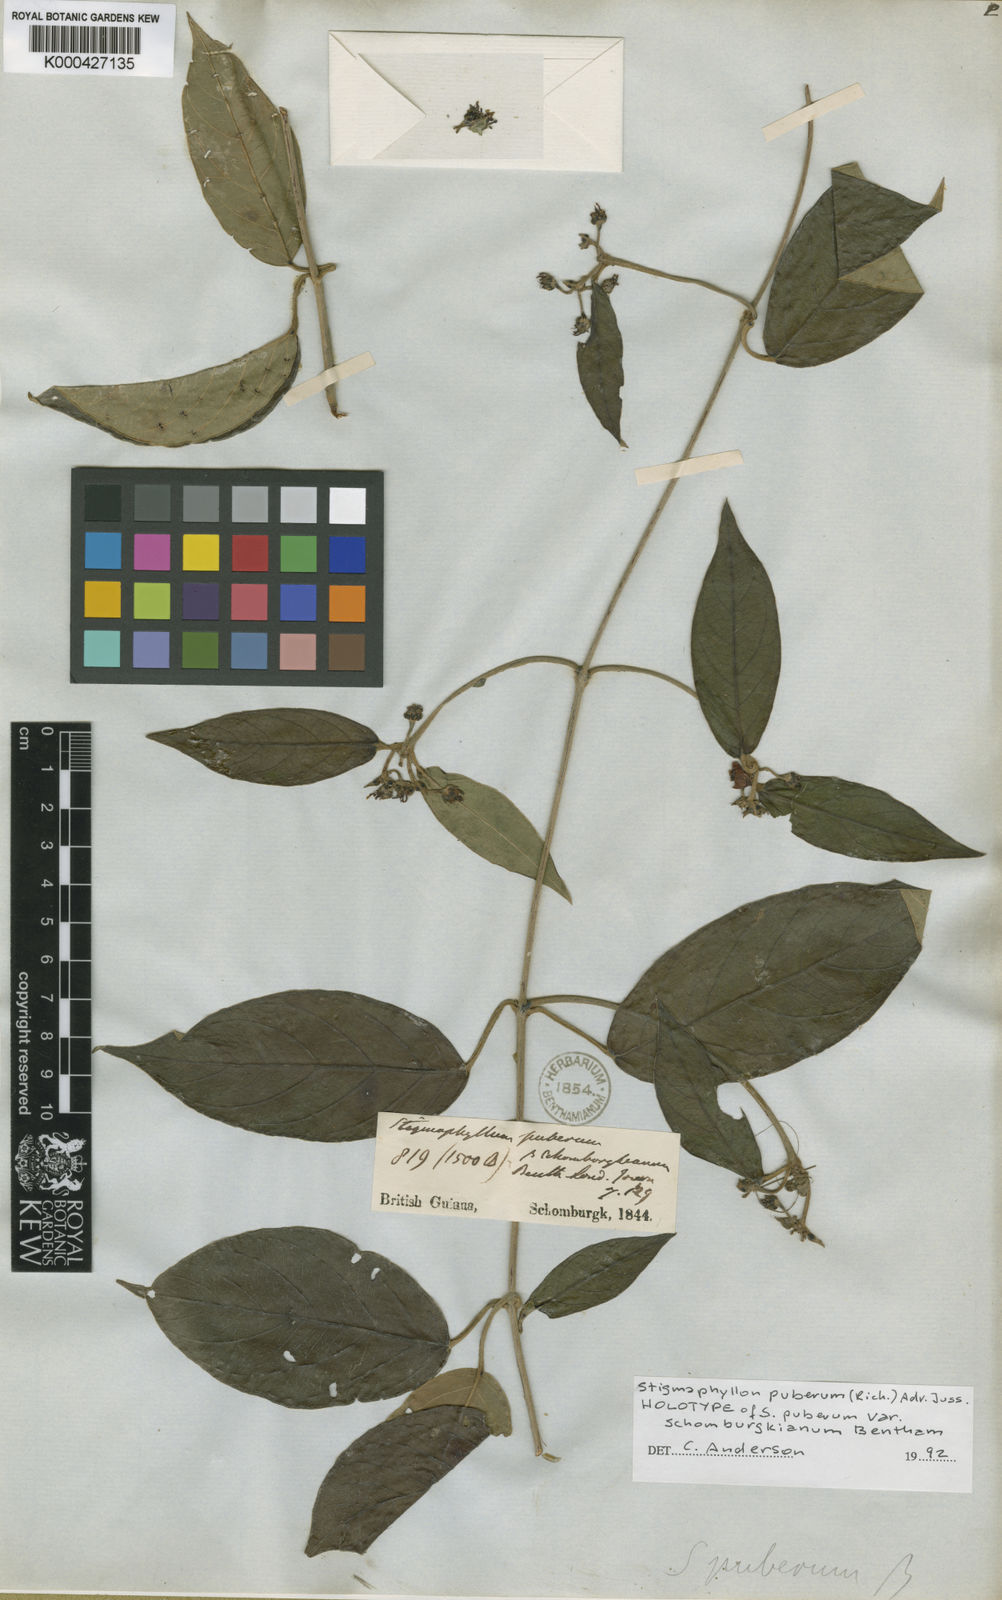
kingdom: Plantae
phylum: Tracheophyta
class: Magnoliopsida
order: Malpighiales
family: Malpighiaceae
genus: Stigmaphyllon
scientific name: Stigmaphyllon puberum
